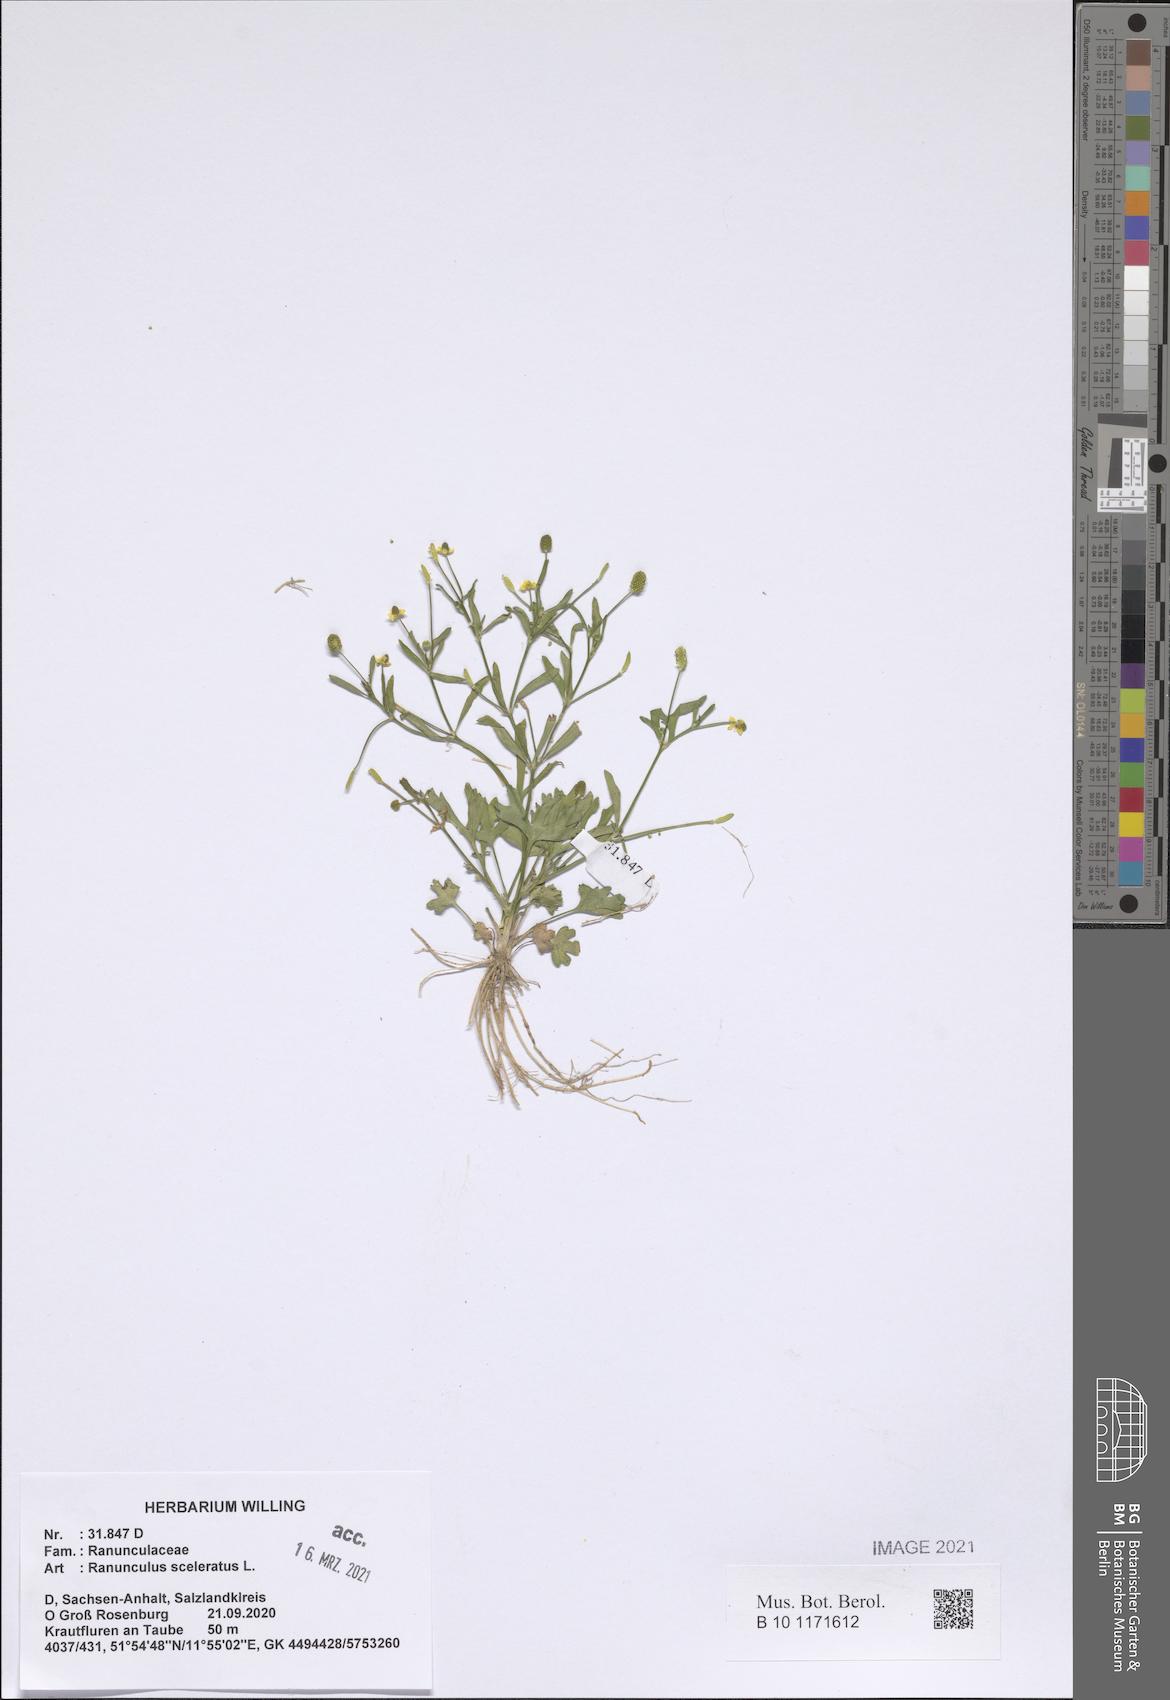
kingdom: Plantae
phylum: Tracheophyta
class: Magnoliopsida
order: Ranunculales
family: Ranunculaceae
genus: Ranunculus
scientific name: Ranunculus sceleratus
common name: Celery-leaved buttercup
